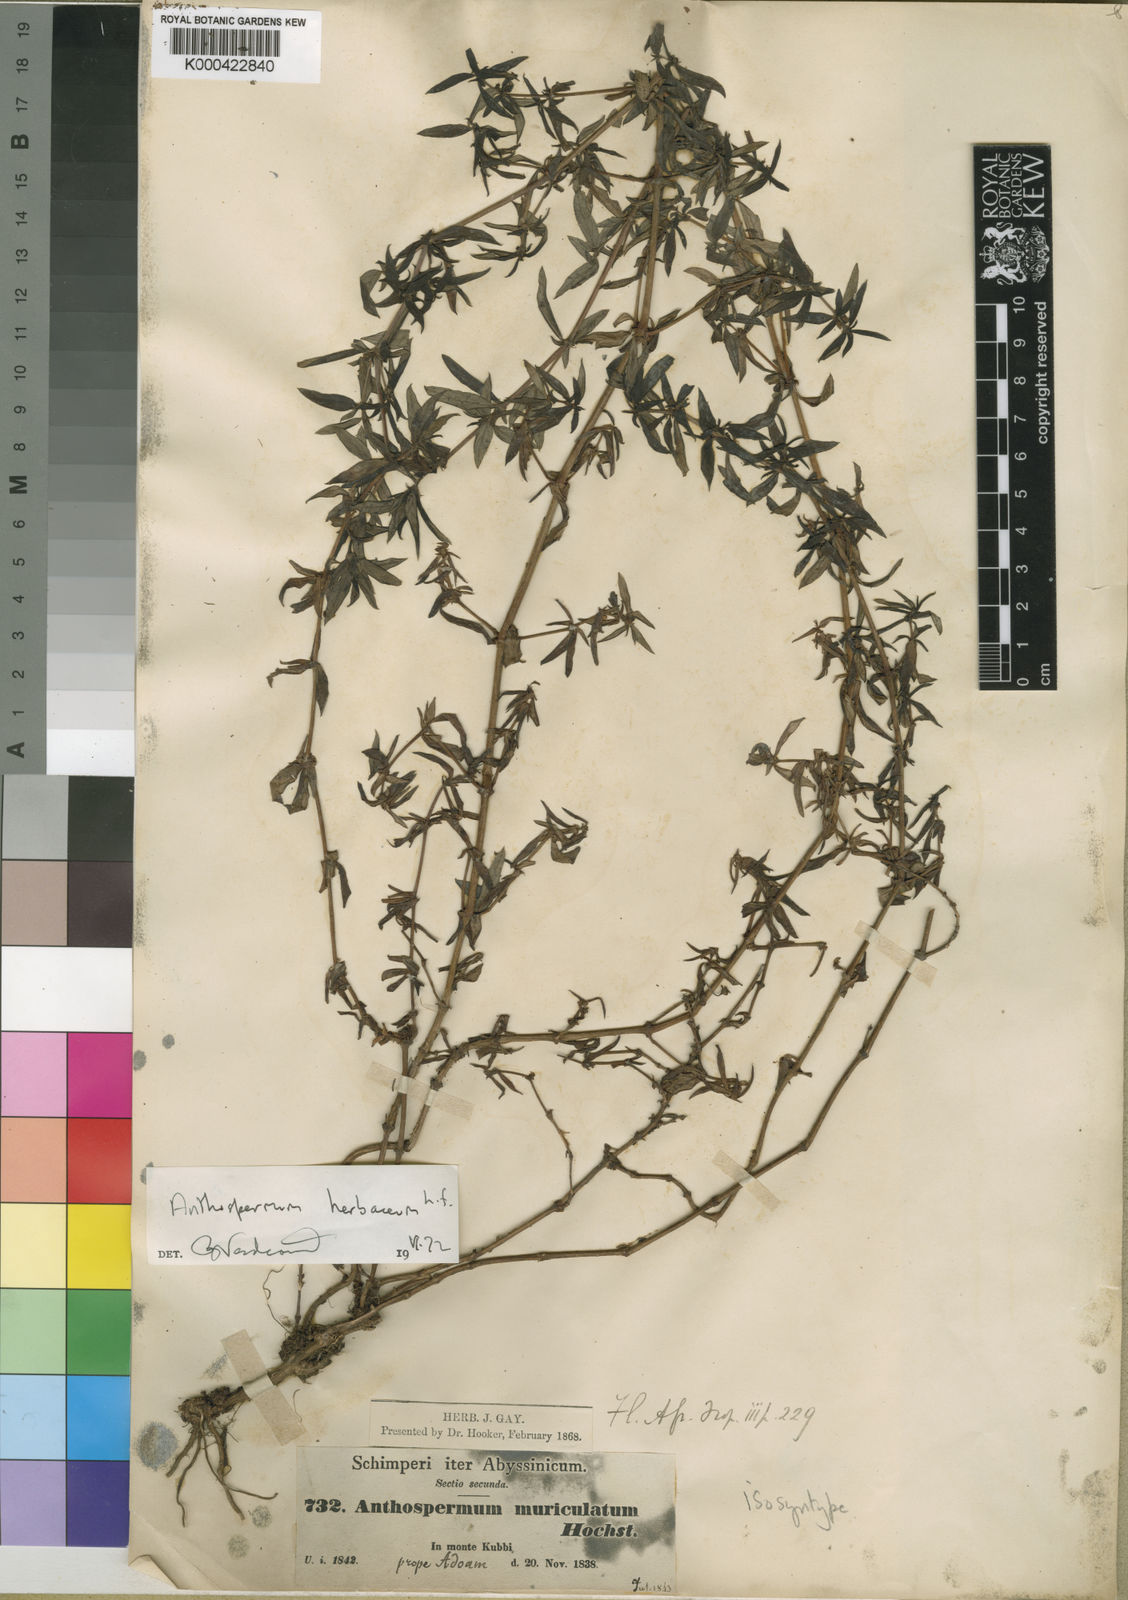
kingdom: Plantae
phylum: Tracheophyta
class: Magnoliopsida
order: Gentianales
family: Rubiaceae
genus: Anthospermum
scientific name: Anthospermum herbaceum
